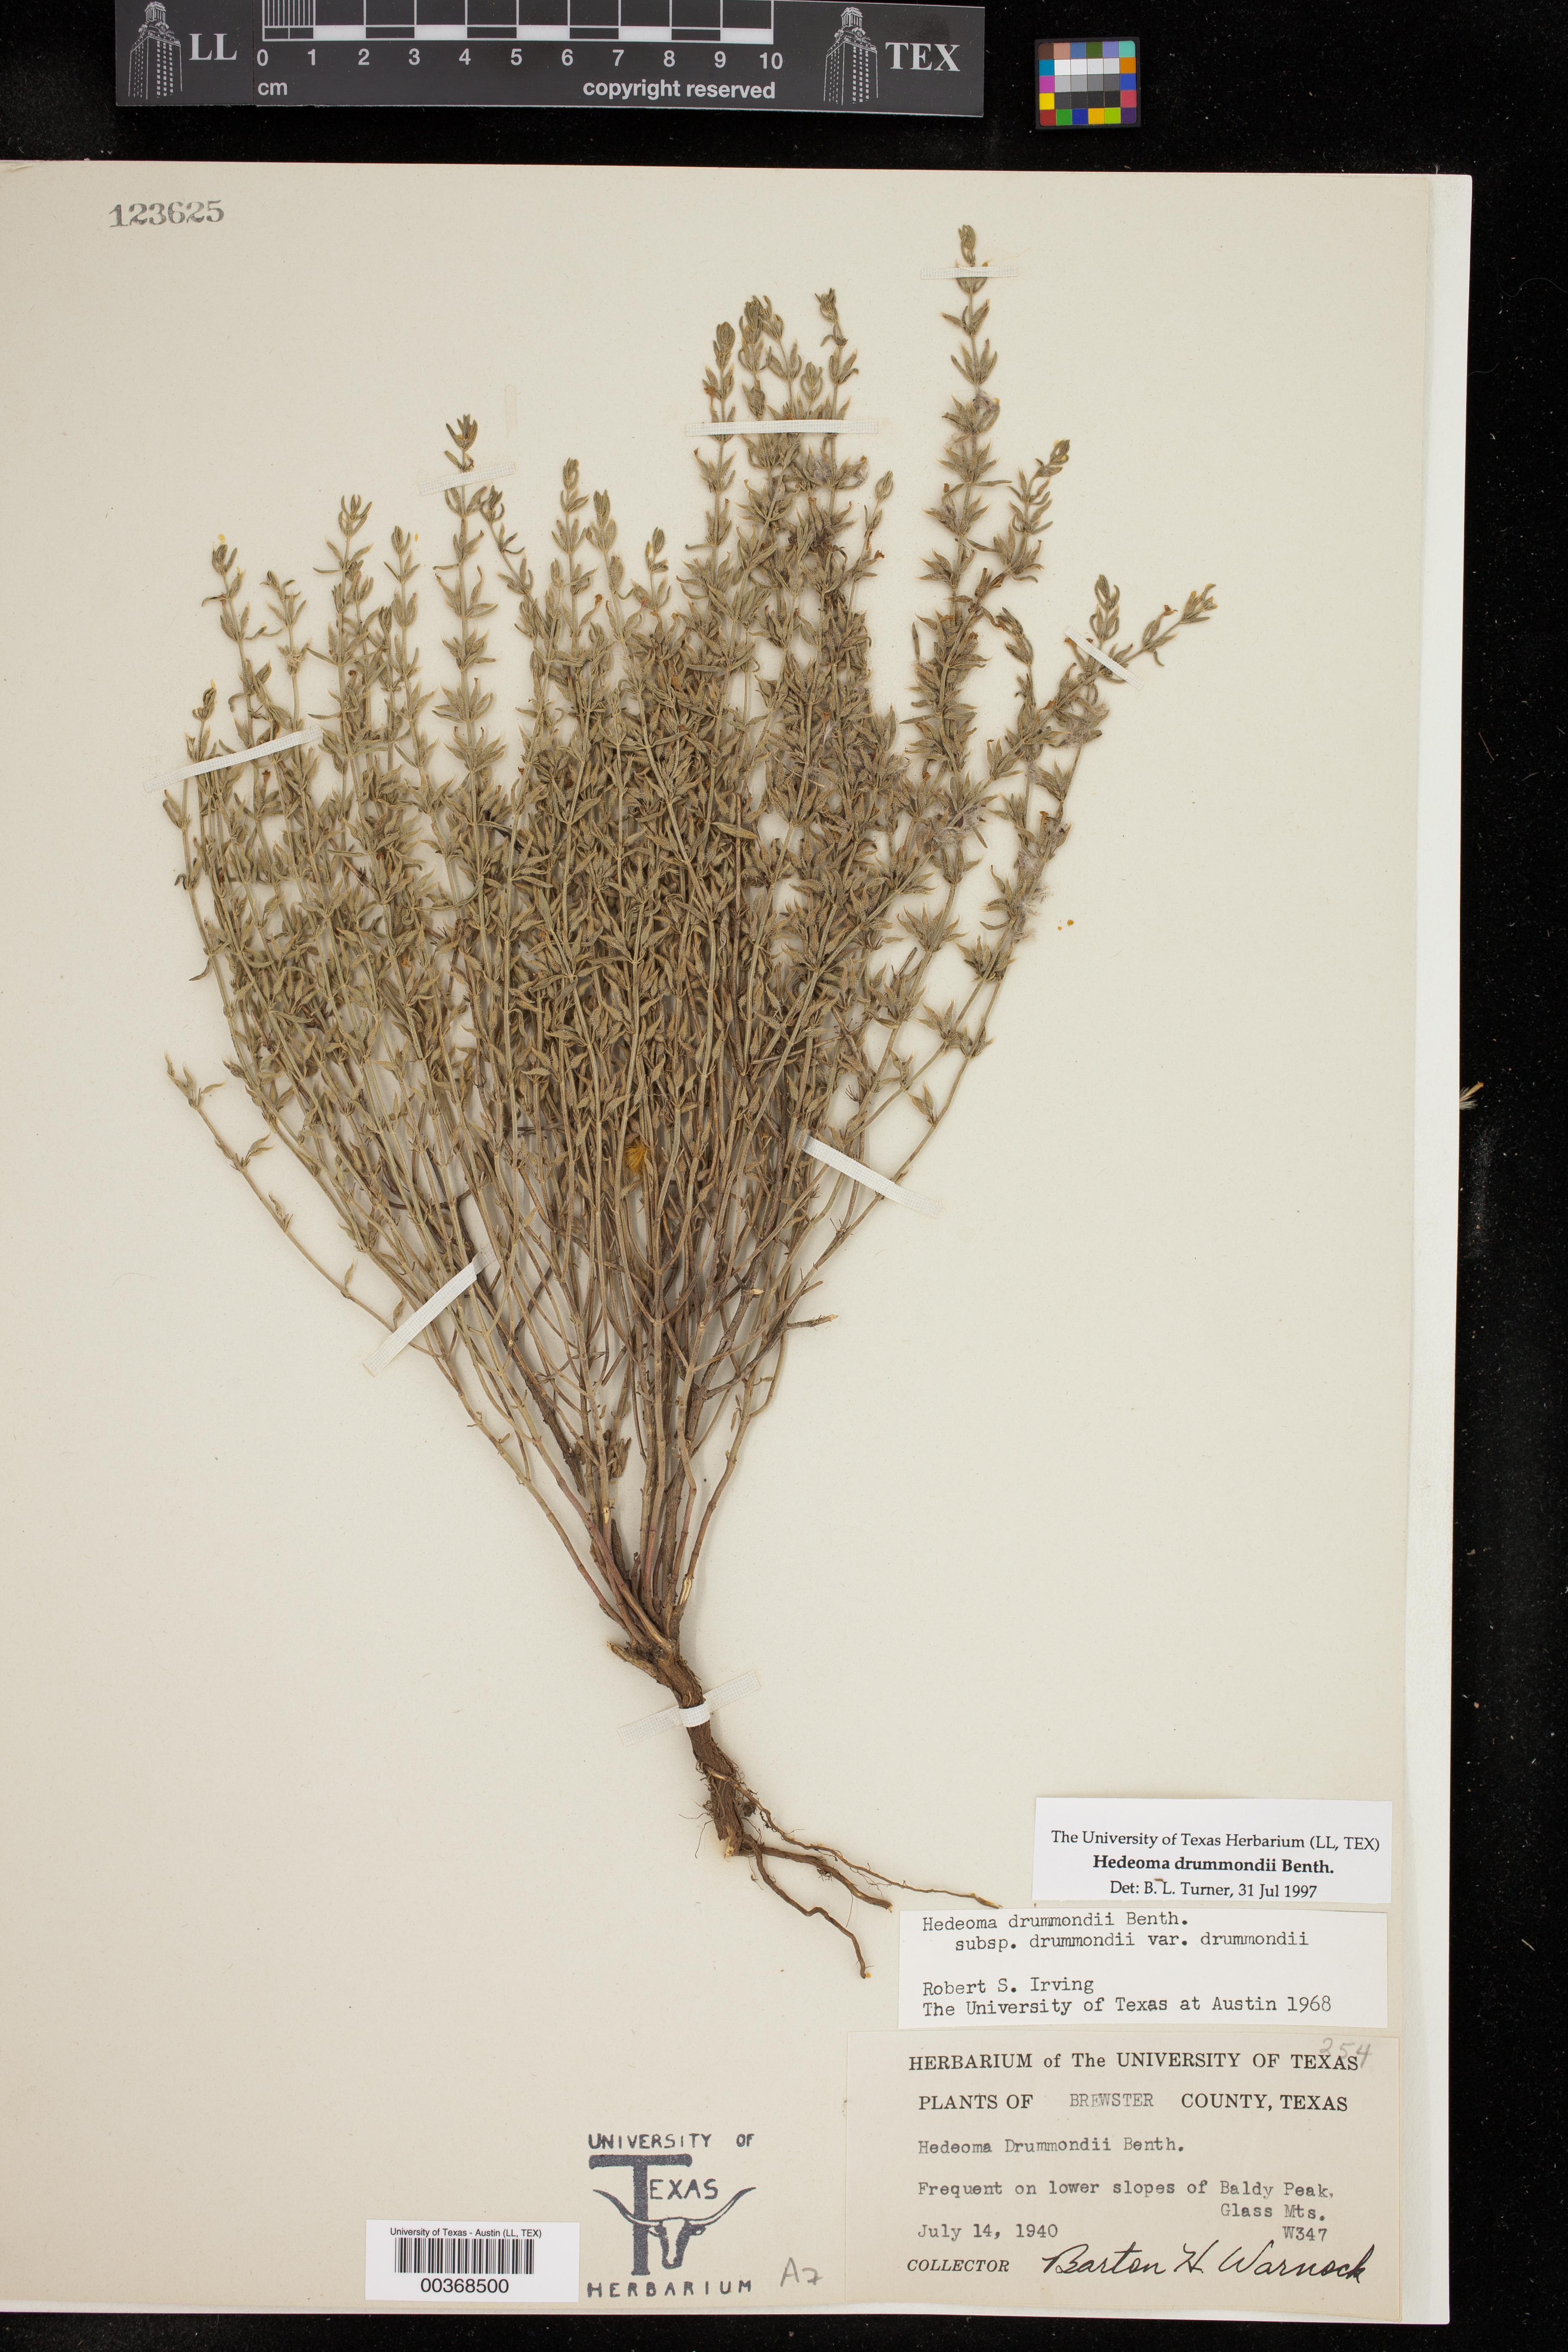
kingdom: Plantae
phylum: Tracheophyta
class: Magnoliopsida
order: Lamiales
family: Lamiaceae
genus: Hedeoma
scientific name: Hedeoma drummondii
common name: New mexico pennyroyal
